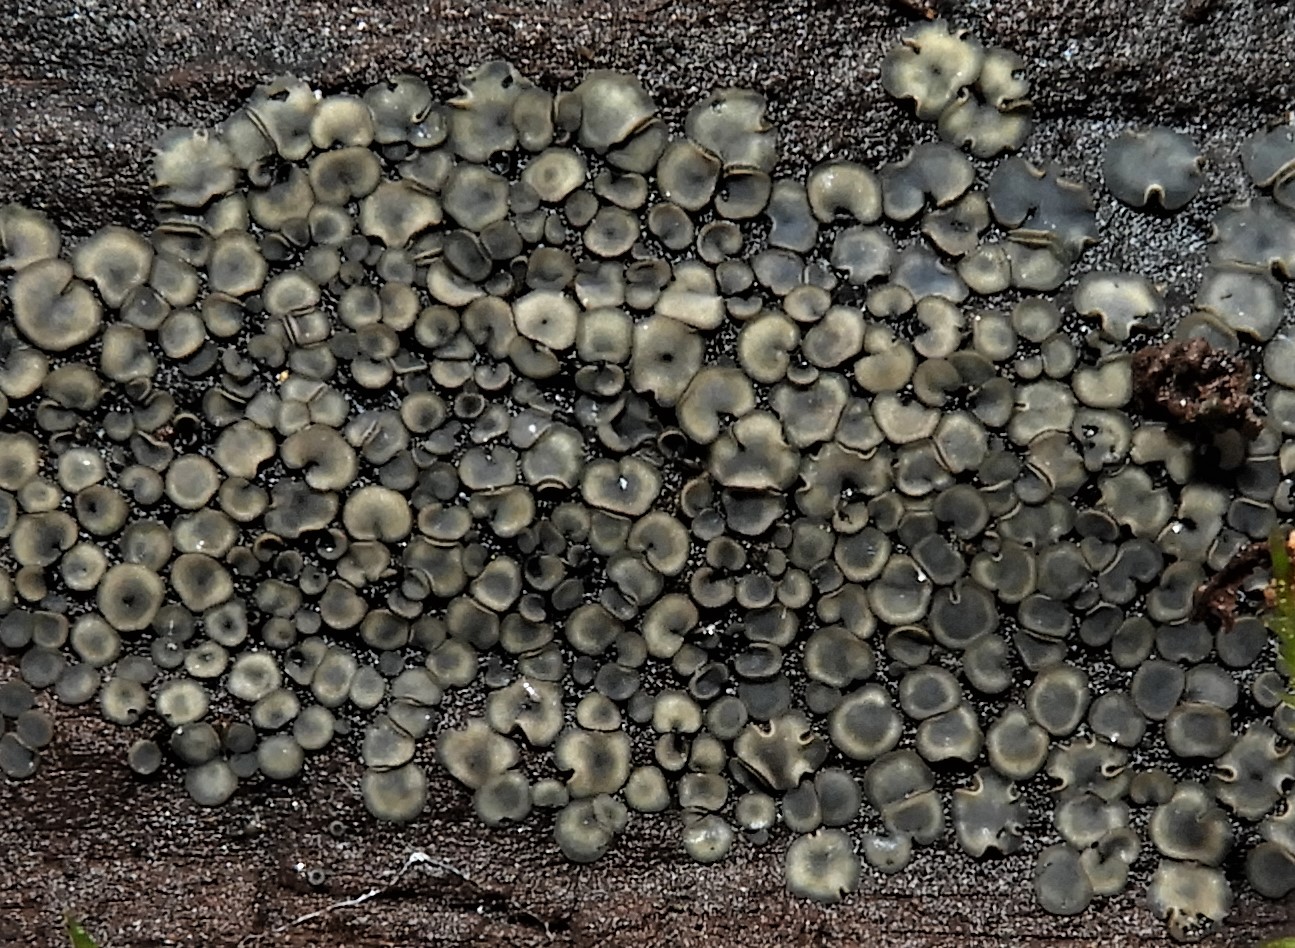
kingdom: Fungi
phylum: Ascomycota
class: Leotiomycetes
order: Helotiales
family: Mollisiaceae
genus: Mollisia
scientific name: Mollisia
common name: gråskive
